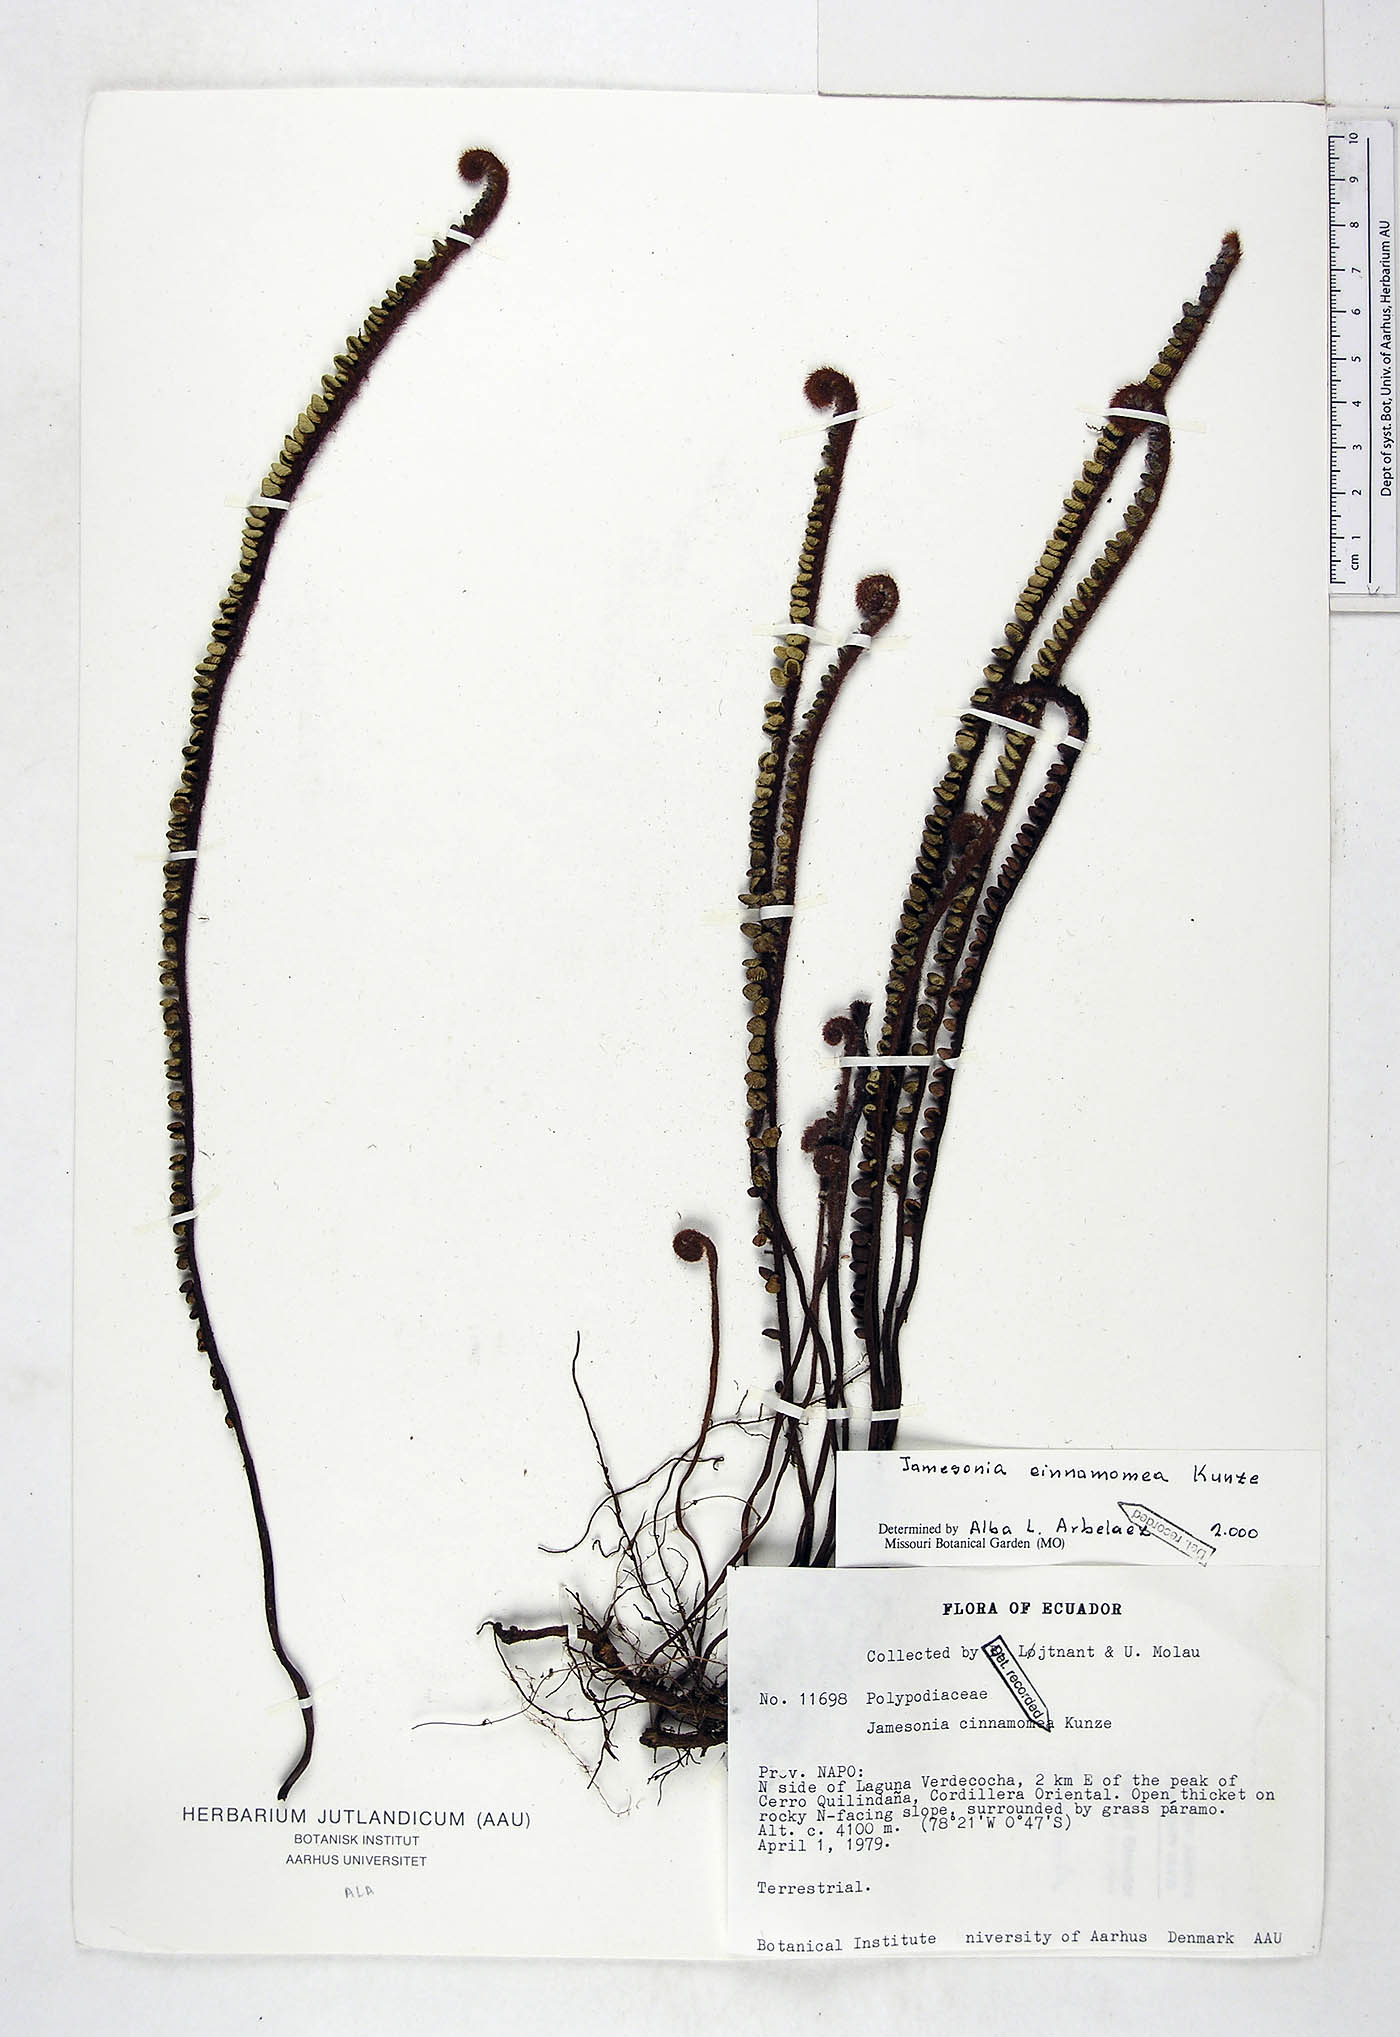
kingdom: Plantae
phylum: Tracheophyta
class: Polypodiopsida
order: Polypodiales
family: Pteridaceae
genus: Jamesonia
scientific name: Jamesonia cinnamomea
